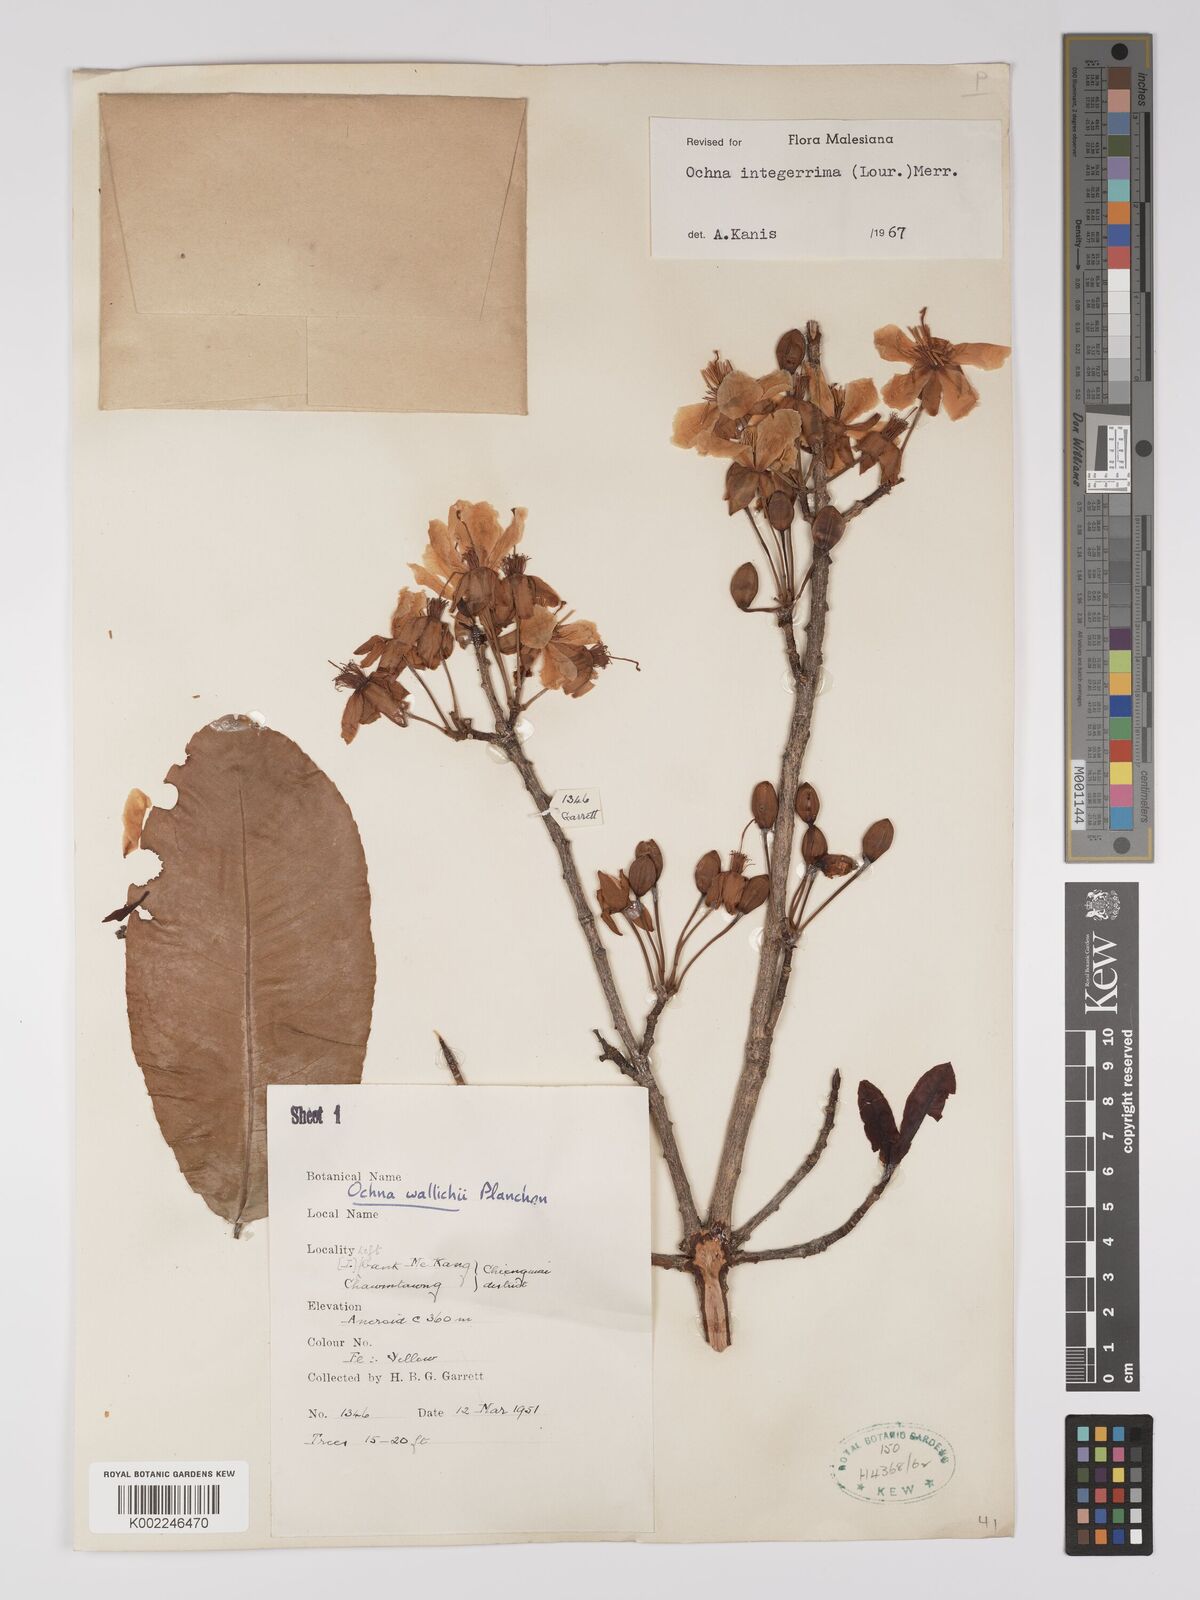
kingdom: Plantae
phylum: Tracheophyta
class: Magnoliopsida
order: Malpighiales
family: Ochnaceae
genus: Ochna
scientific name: Ochna integerrima
